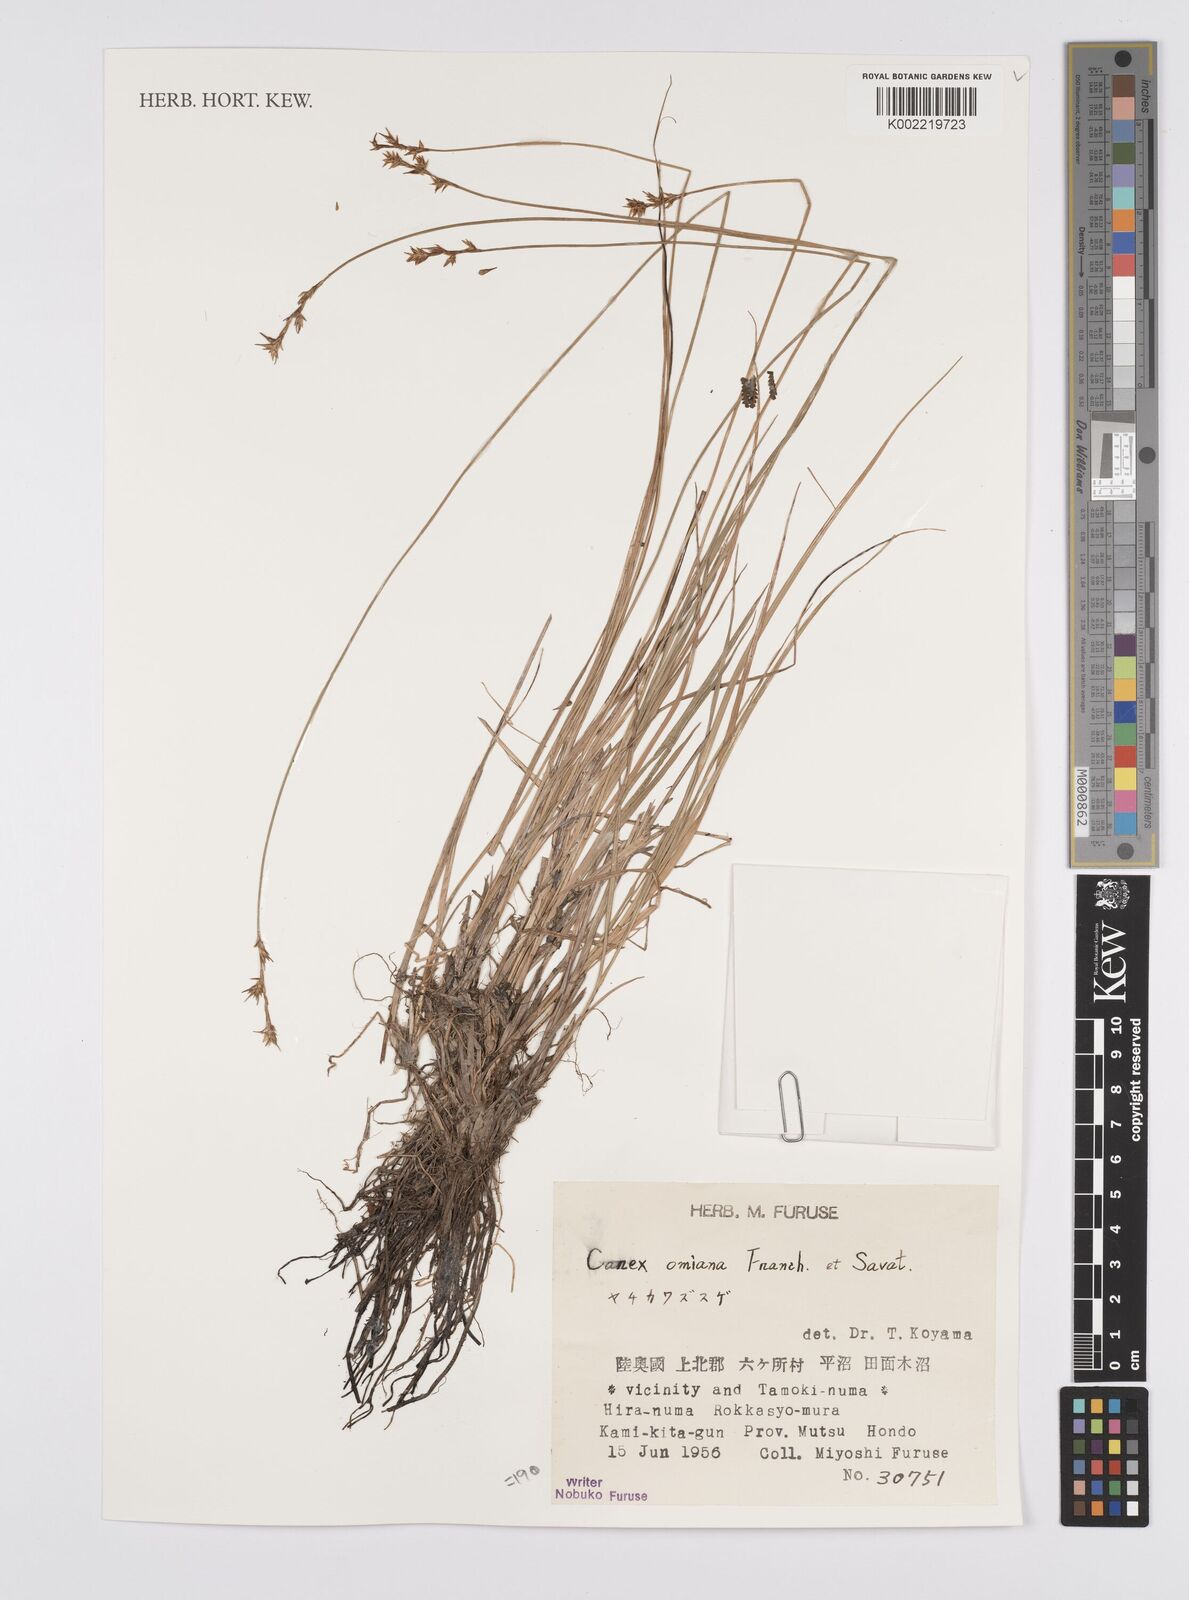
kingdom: Plantae
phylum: Tracheophyta
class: Liliopsida
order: Poales
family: Cyperaceae
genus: Carex
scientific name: Carex echinata
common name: Star sedge
